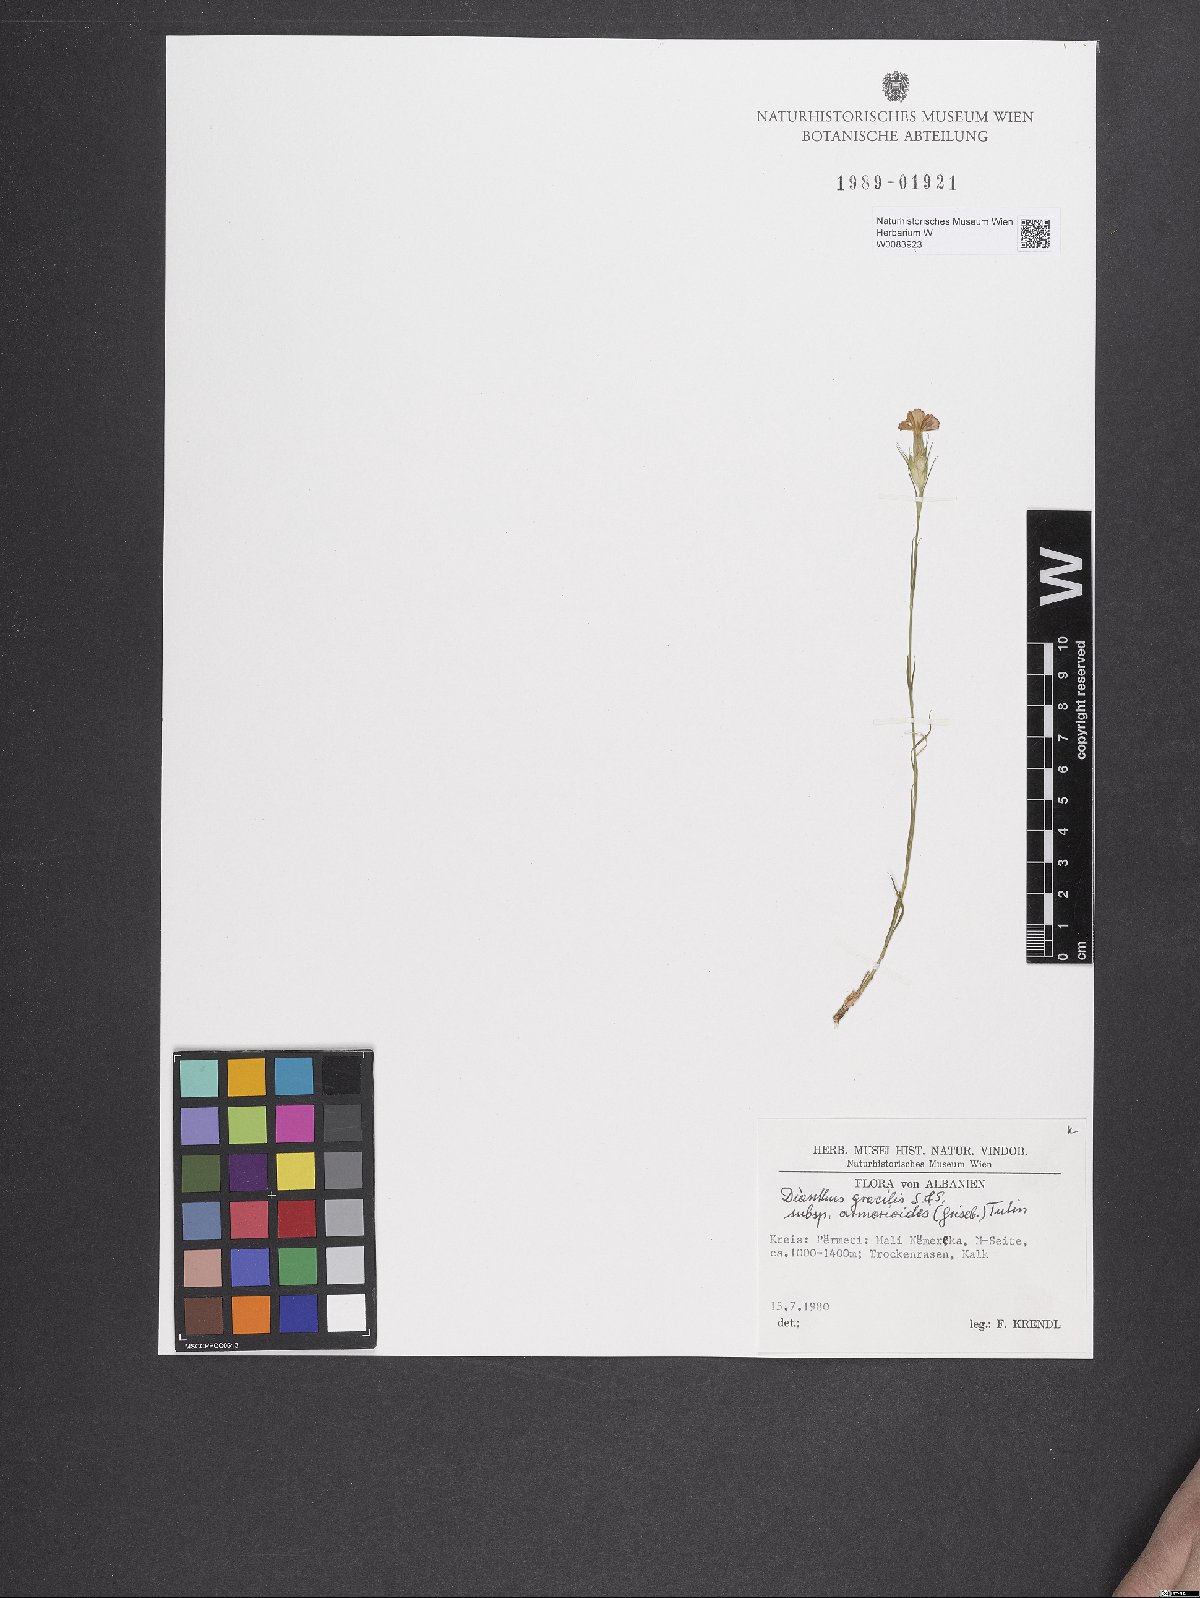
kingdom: Plantae
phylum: Tracheophyta
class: Magnoliopsida
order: Caryophyllales
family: Caryophyllaceae
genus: Dianthus
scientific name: Dianthus gracilis
